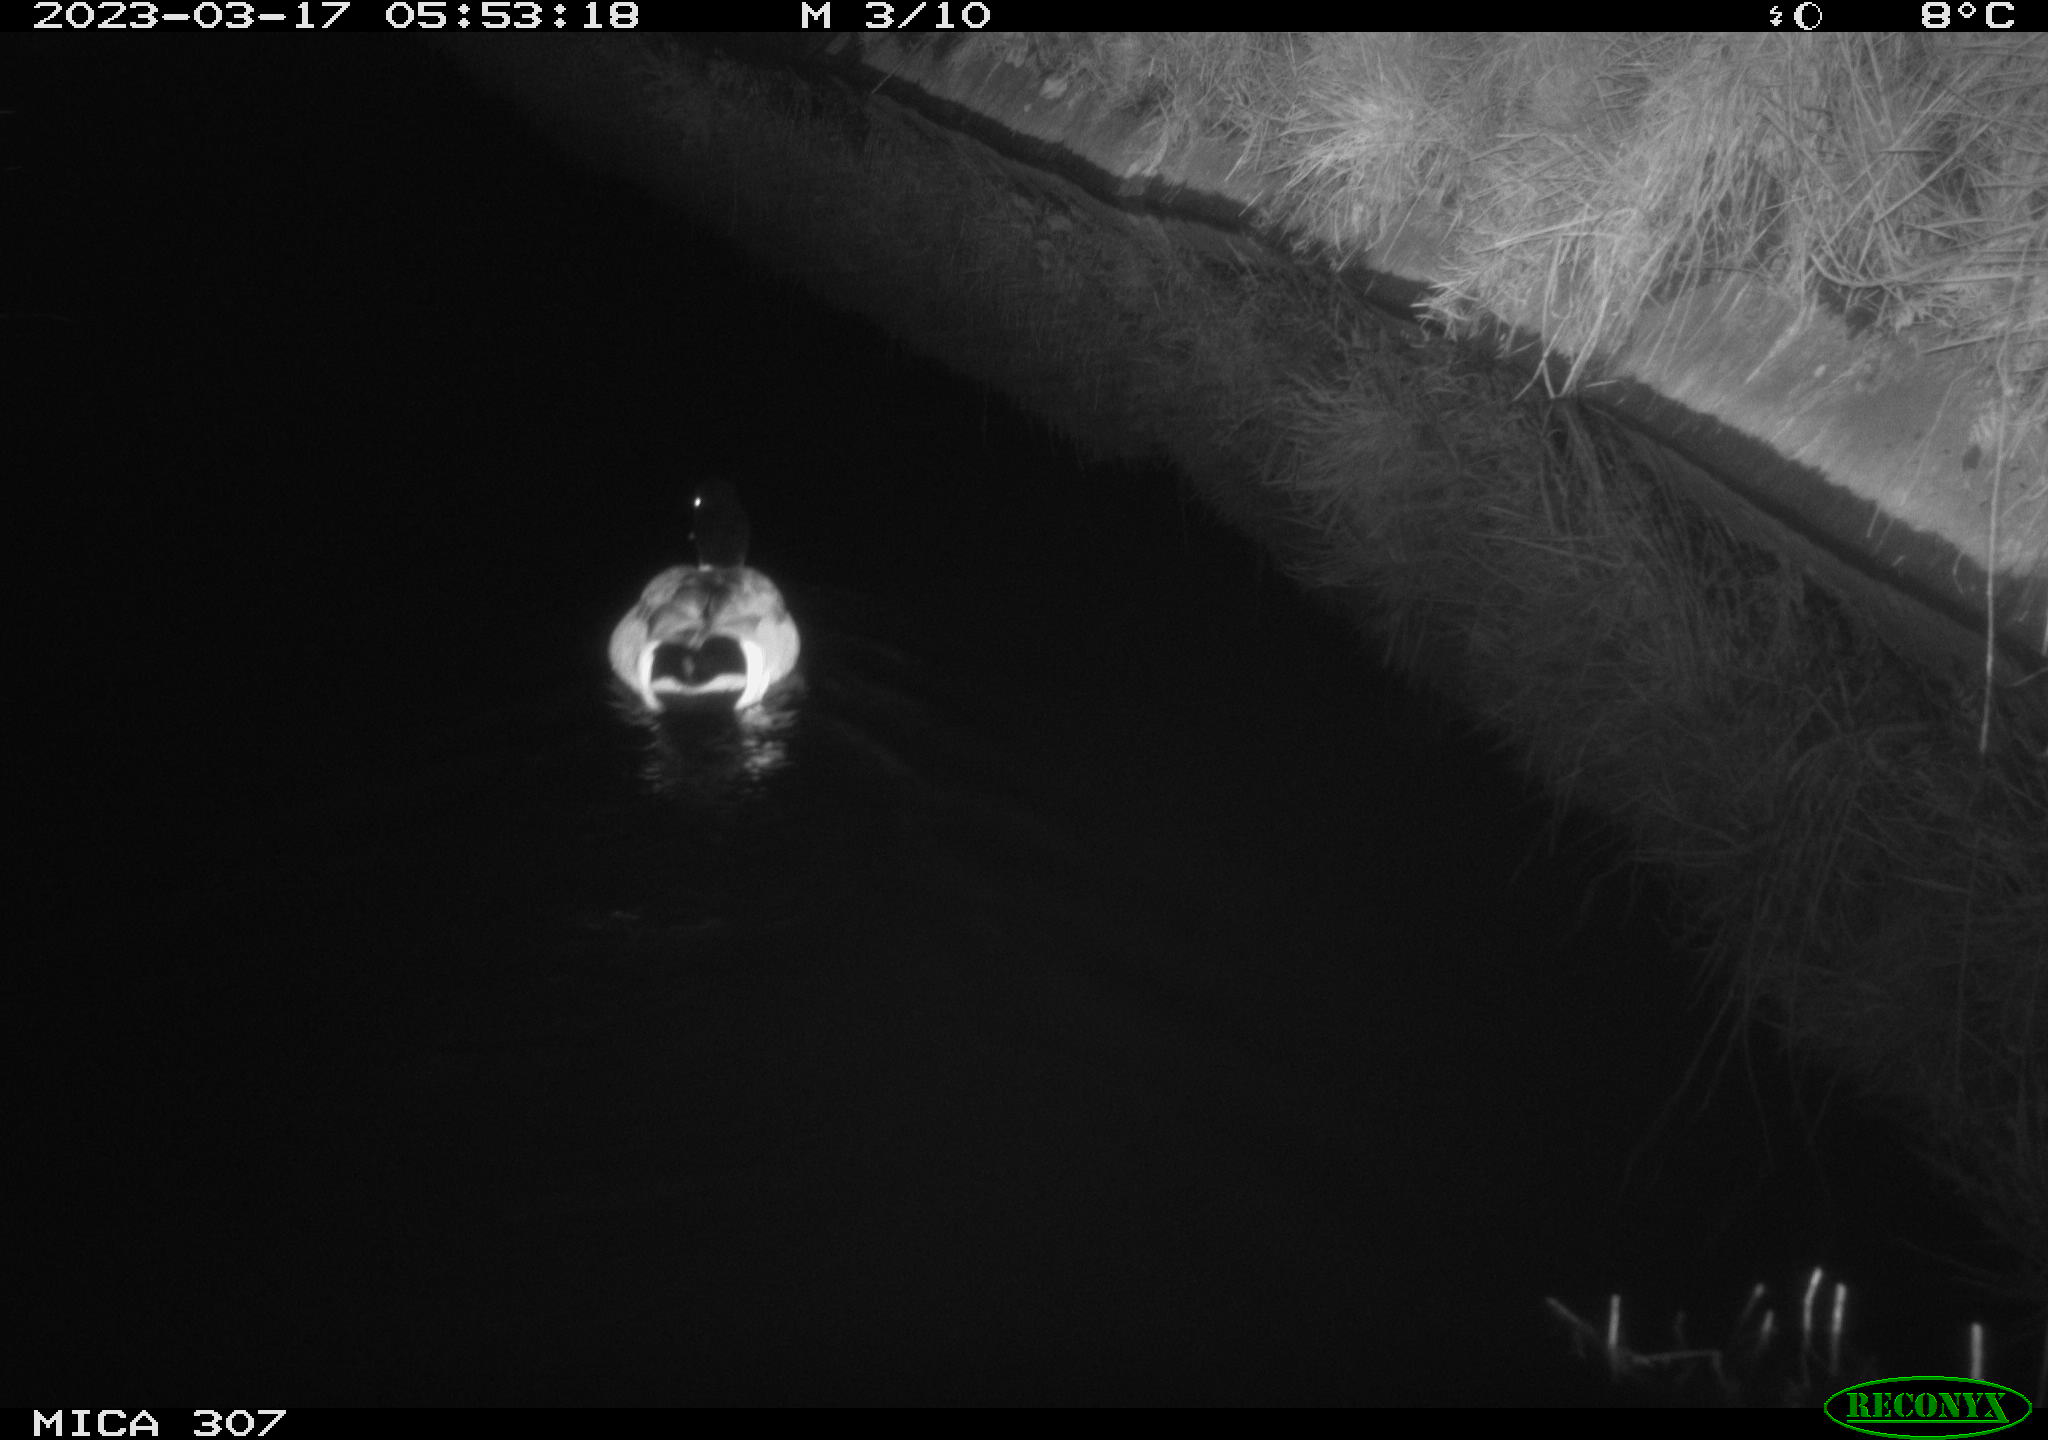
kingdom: Animalia
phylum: Chordata
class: Aves
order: Anseriformes
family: Anatidae
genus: Anas
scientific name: Anas
